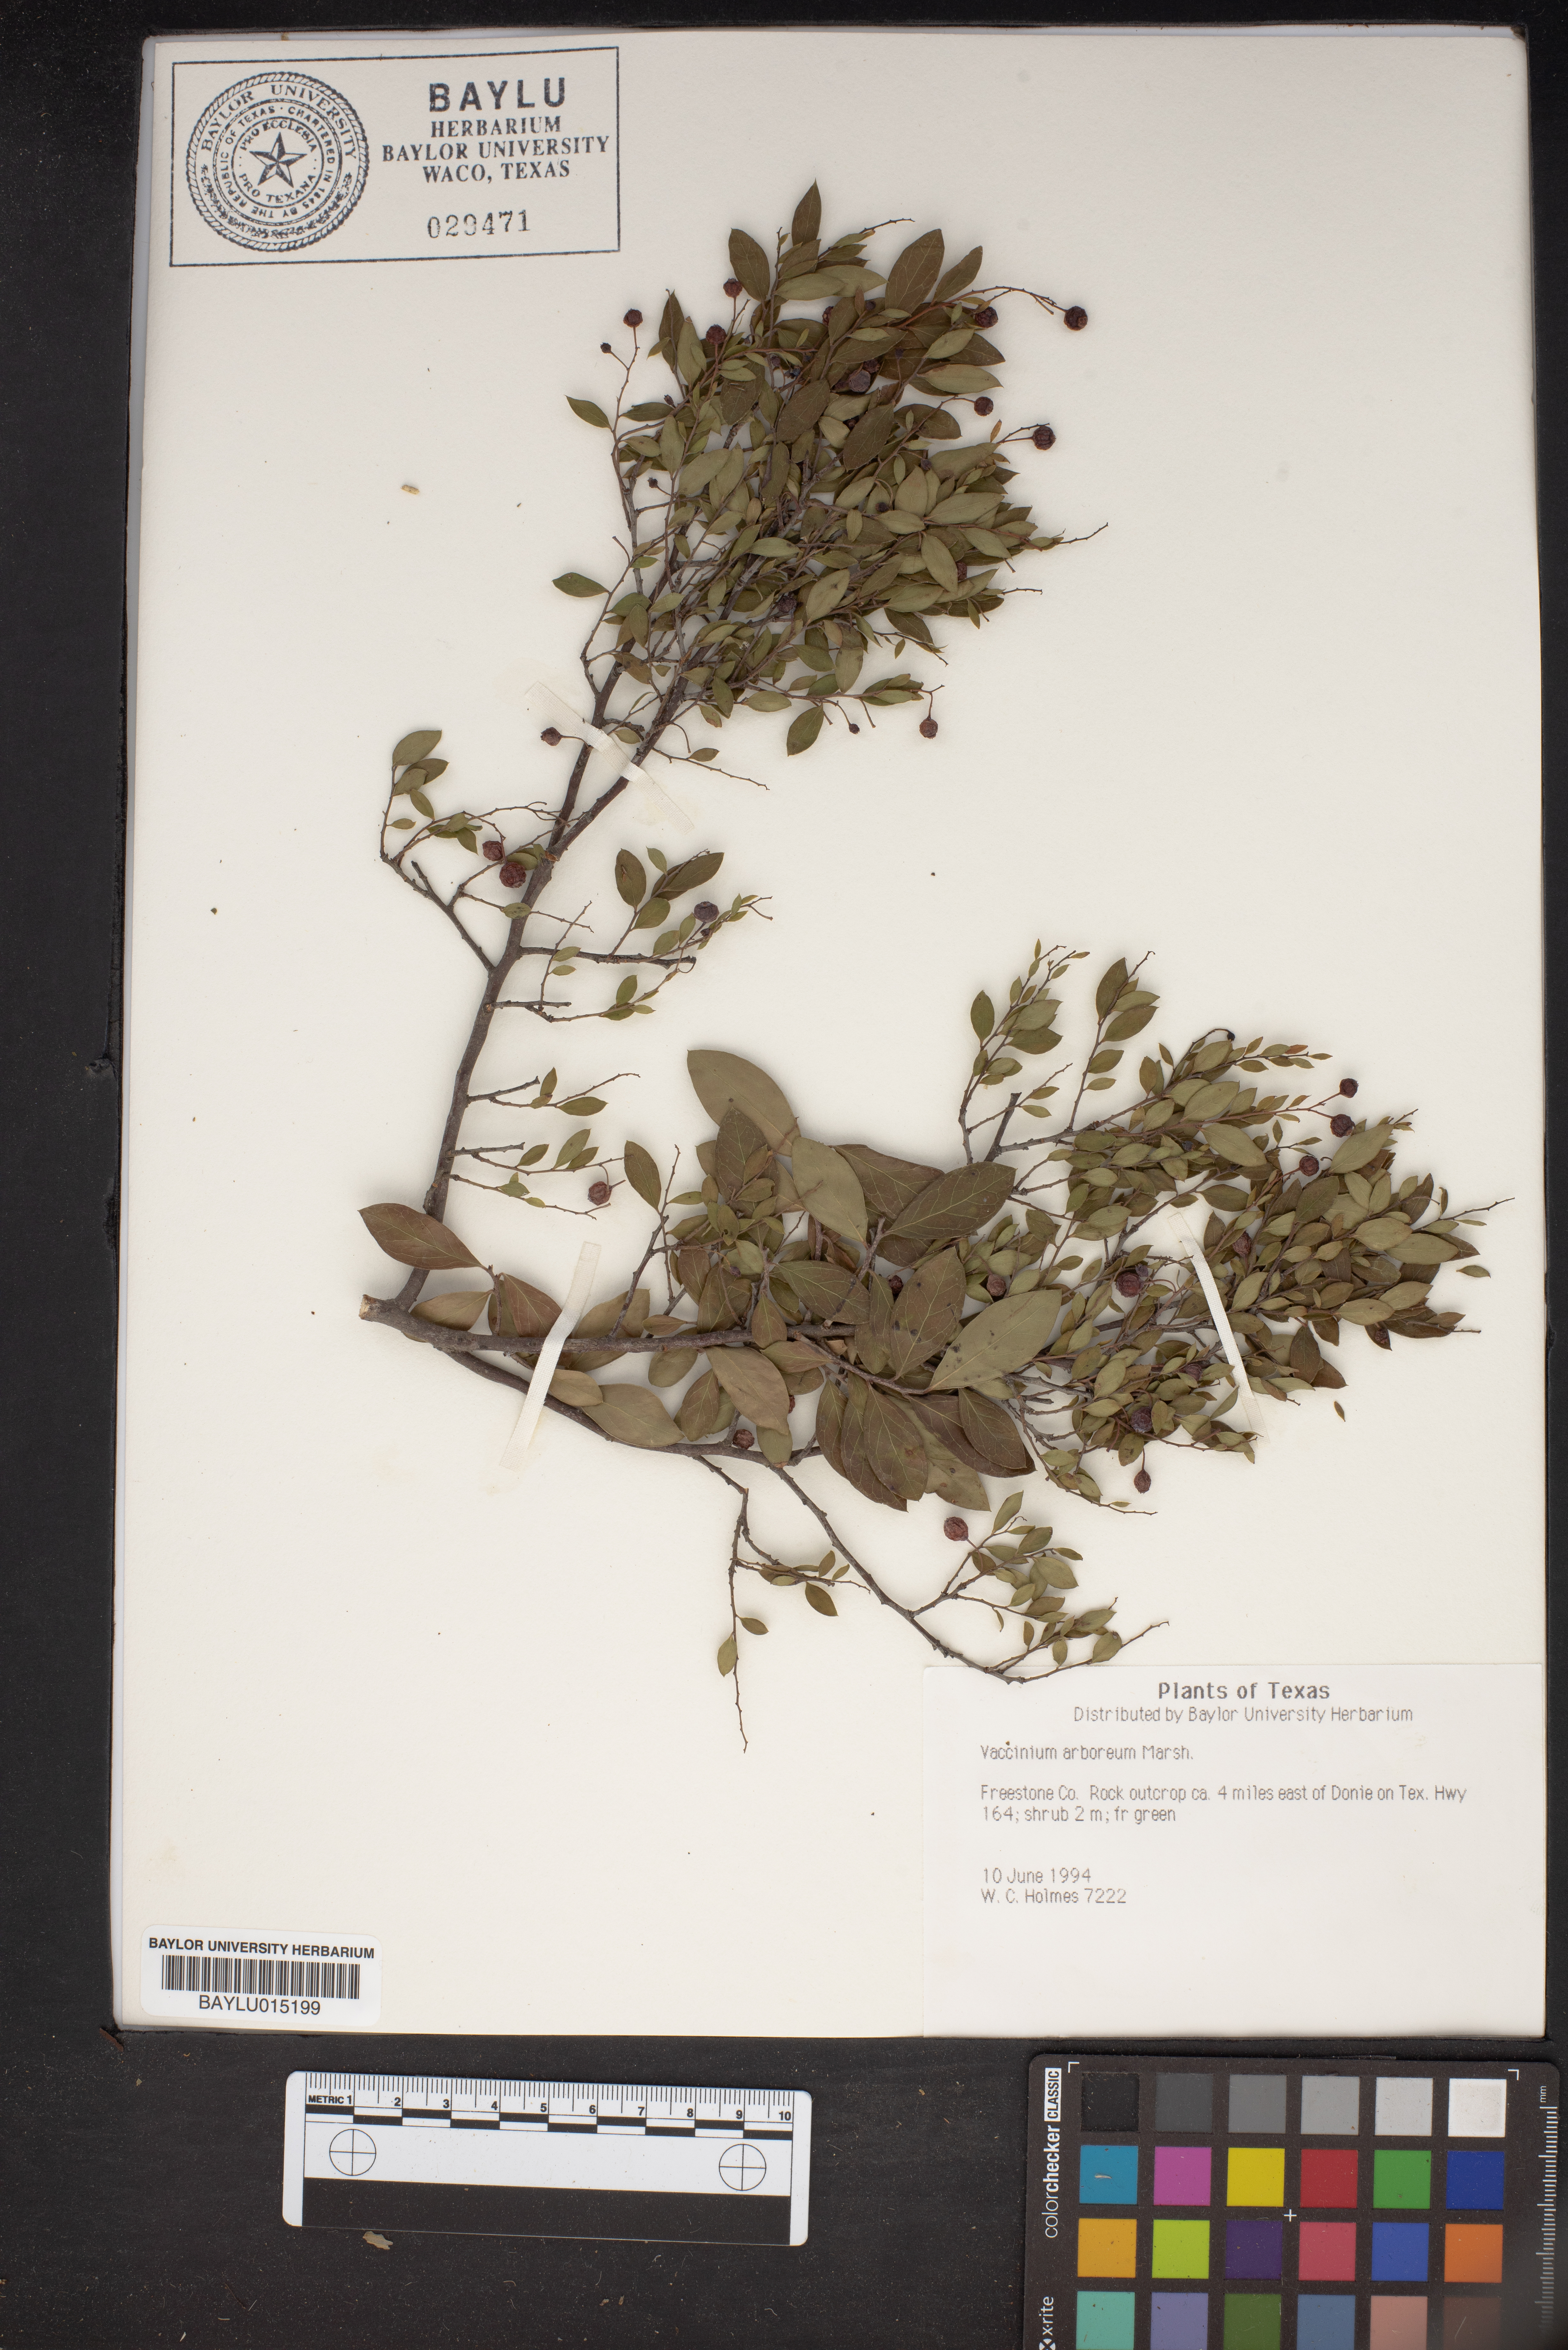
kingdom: Plantae
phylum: Tracheophyta
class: Magnoliopsida
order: Ericales
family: Ericaceae
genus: Vaccinium
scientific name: Vaccinium arboreum
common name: Farkleberry
